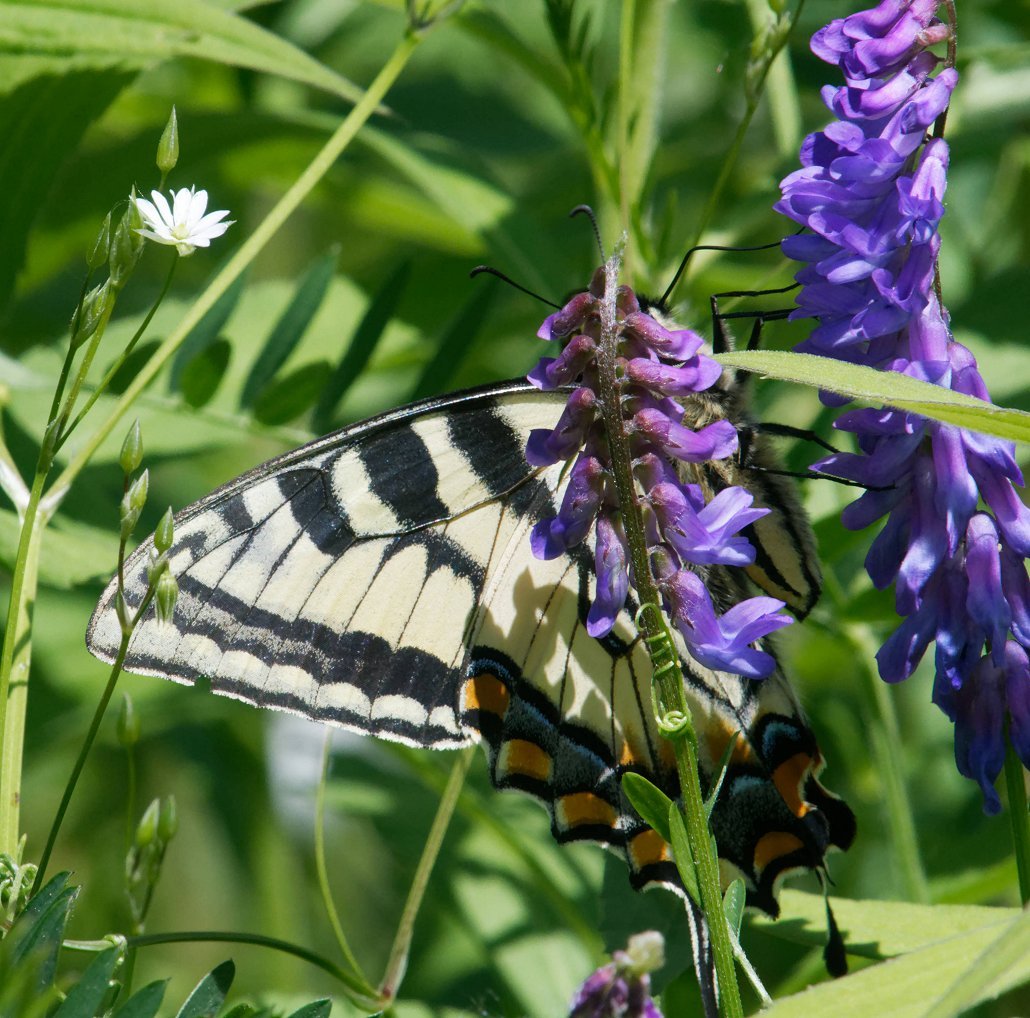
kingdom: Animalia
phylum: Arthropoda
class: Insecta
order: Lepidoptera
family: Papilionidae
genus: Pterourus
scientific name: Pterourus canadensis
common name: Canadian Tiger Swallowtail
